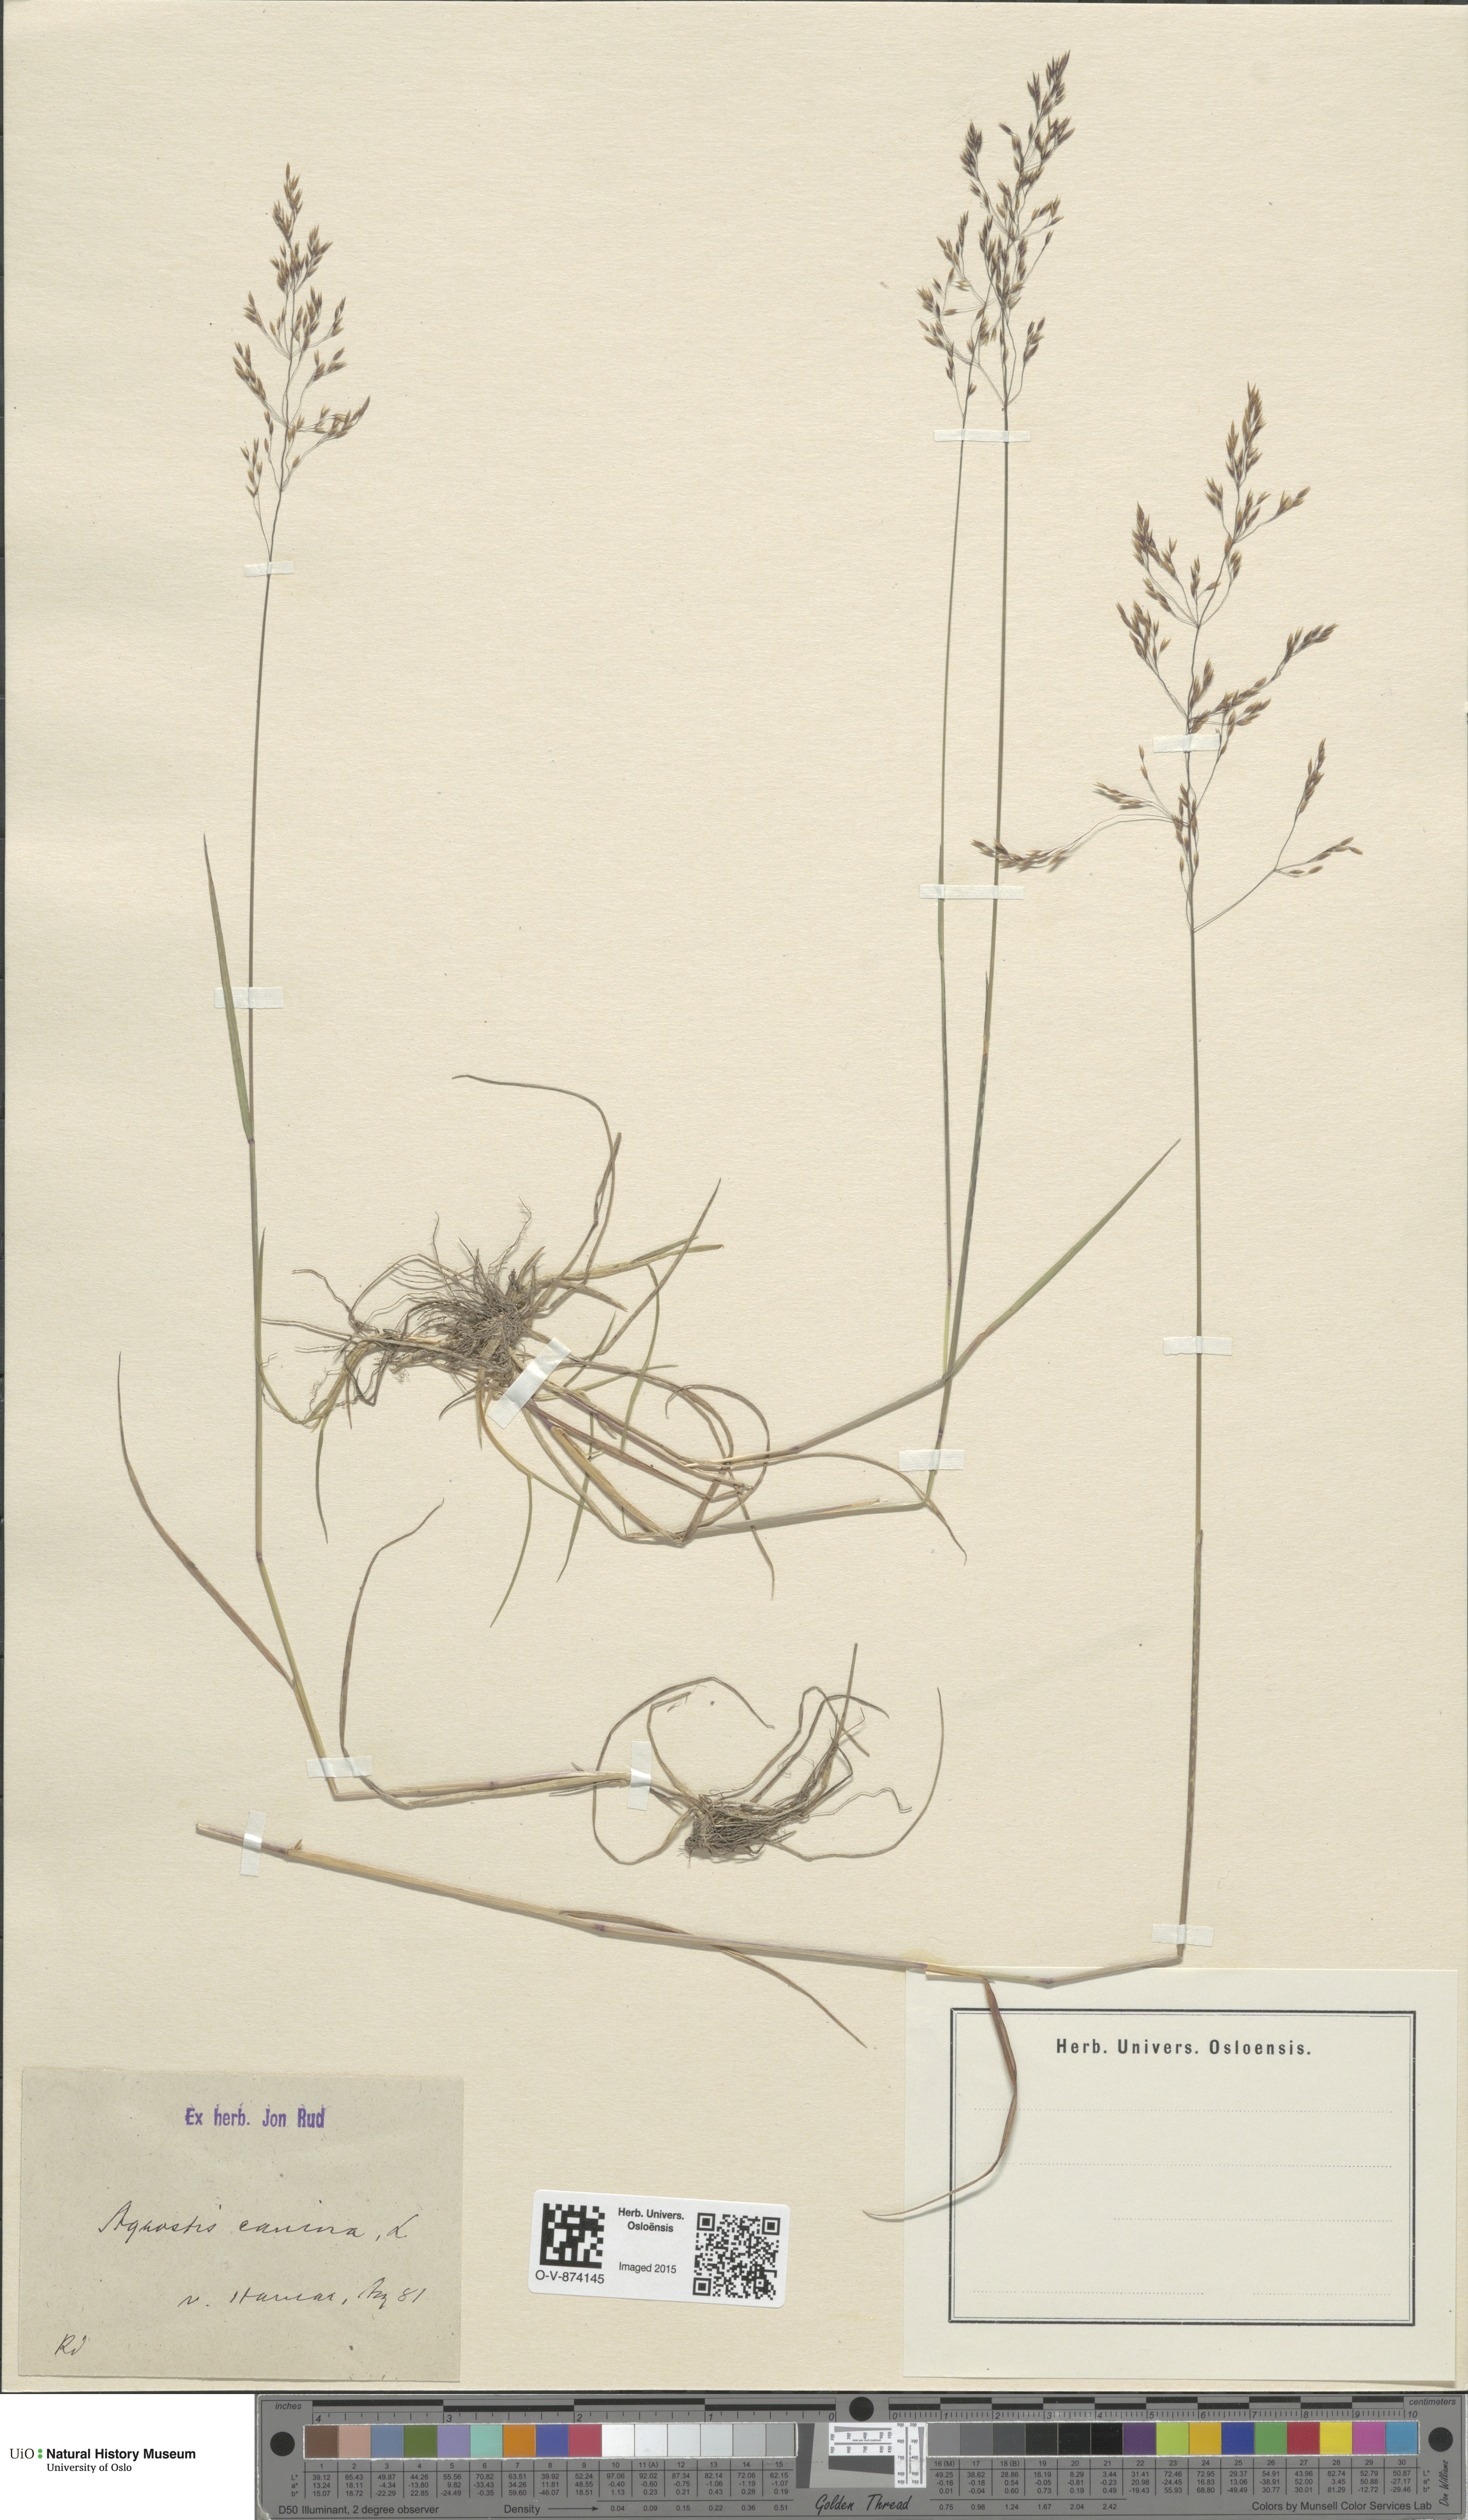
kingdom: Plantae
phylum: Tracheophyta
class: Liliopsida
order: Poales
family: Poaceae
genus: Agrostis
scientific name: Agrostis canina
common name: Velvet bent
